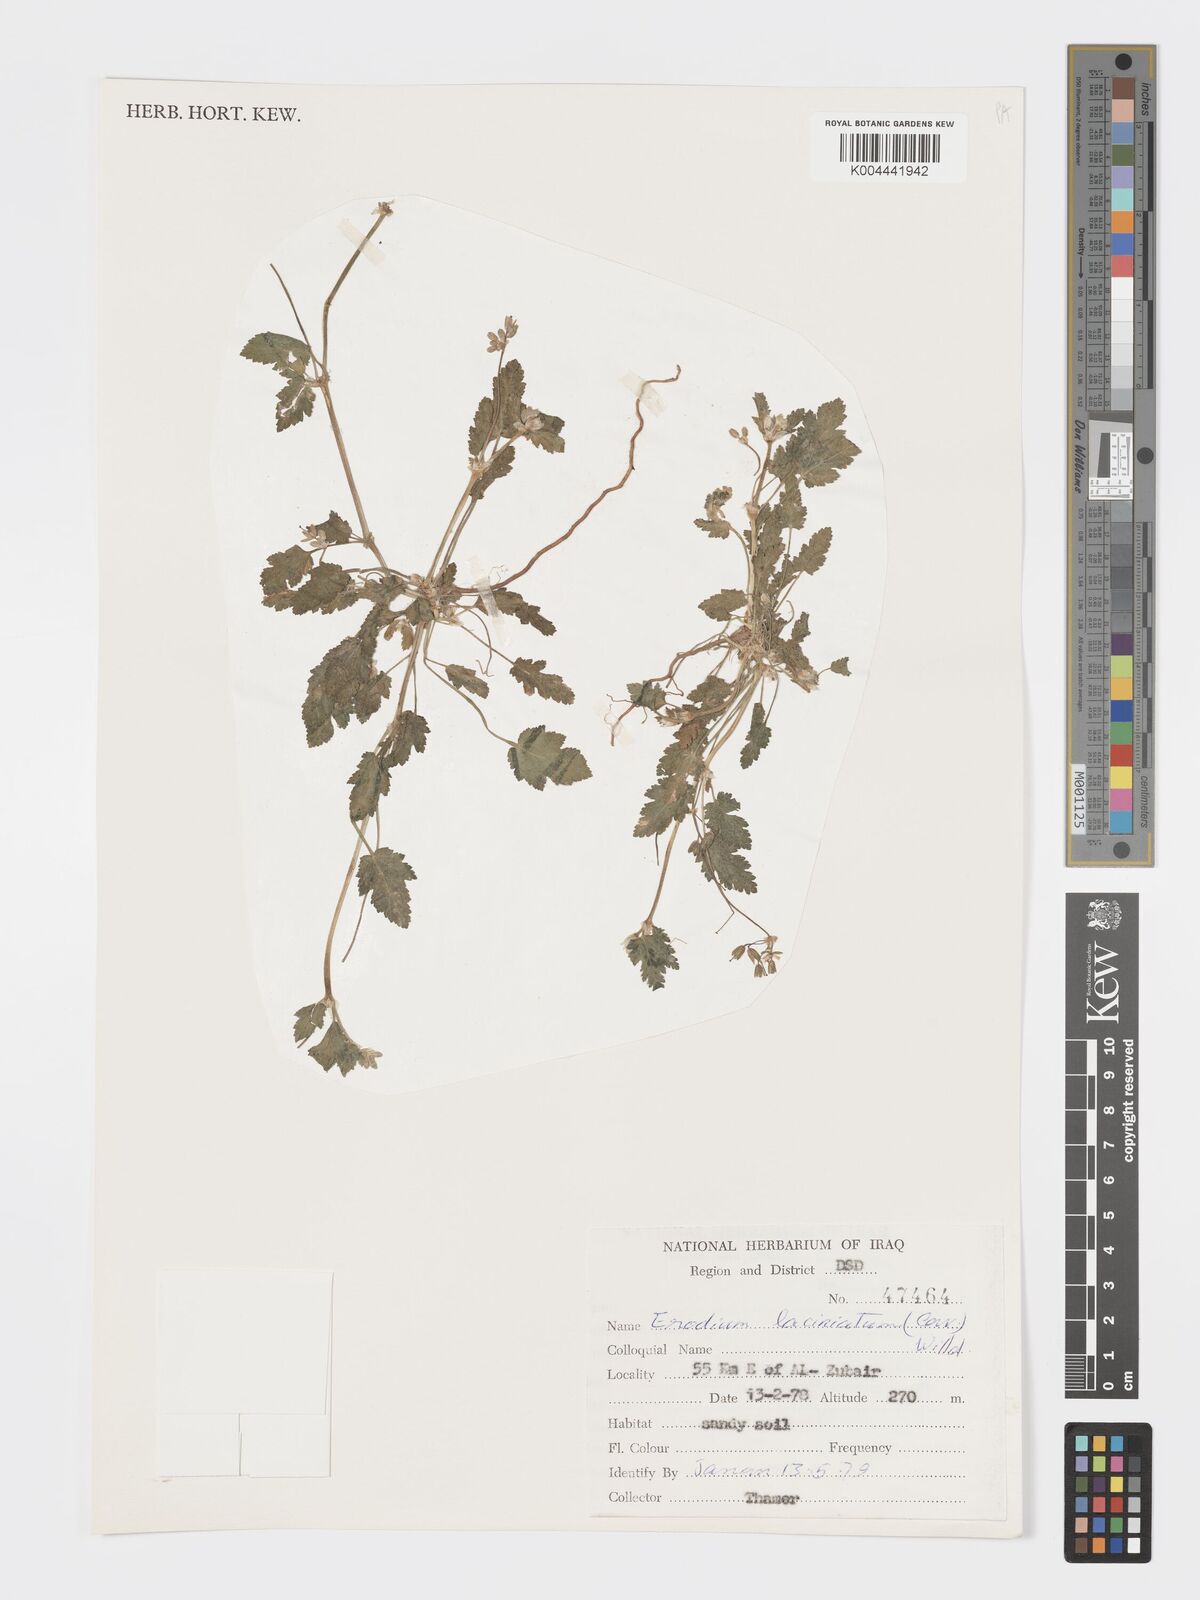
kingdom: Plantae
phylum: Tracheophyta
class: Magnoliopsida
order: Geraniales
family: Geraniaceae
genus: Erodium
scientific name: Erodium laciniatum
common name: Cutleaf stork's bill
